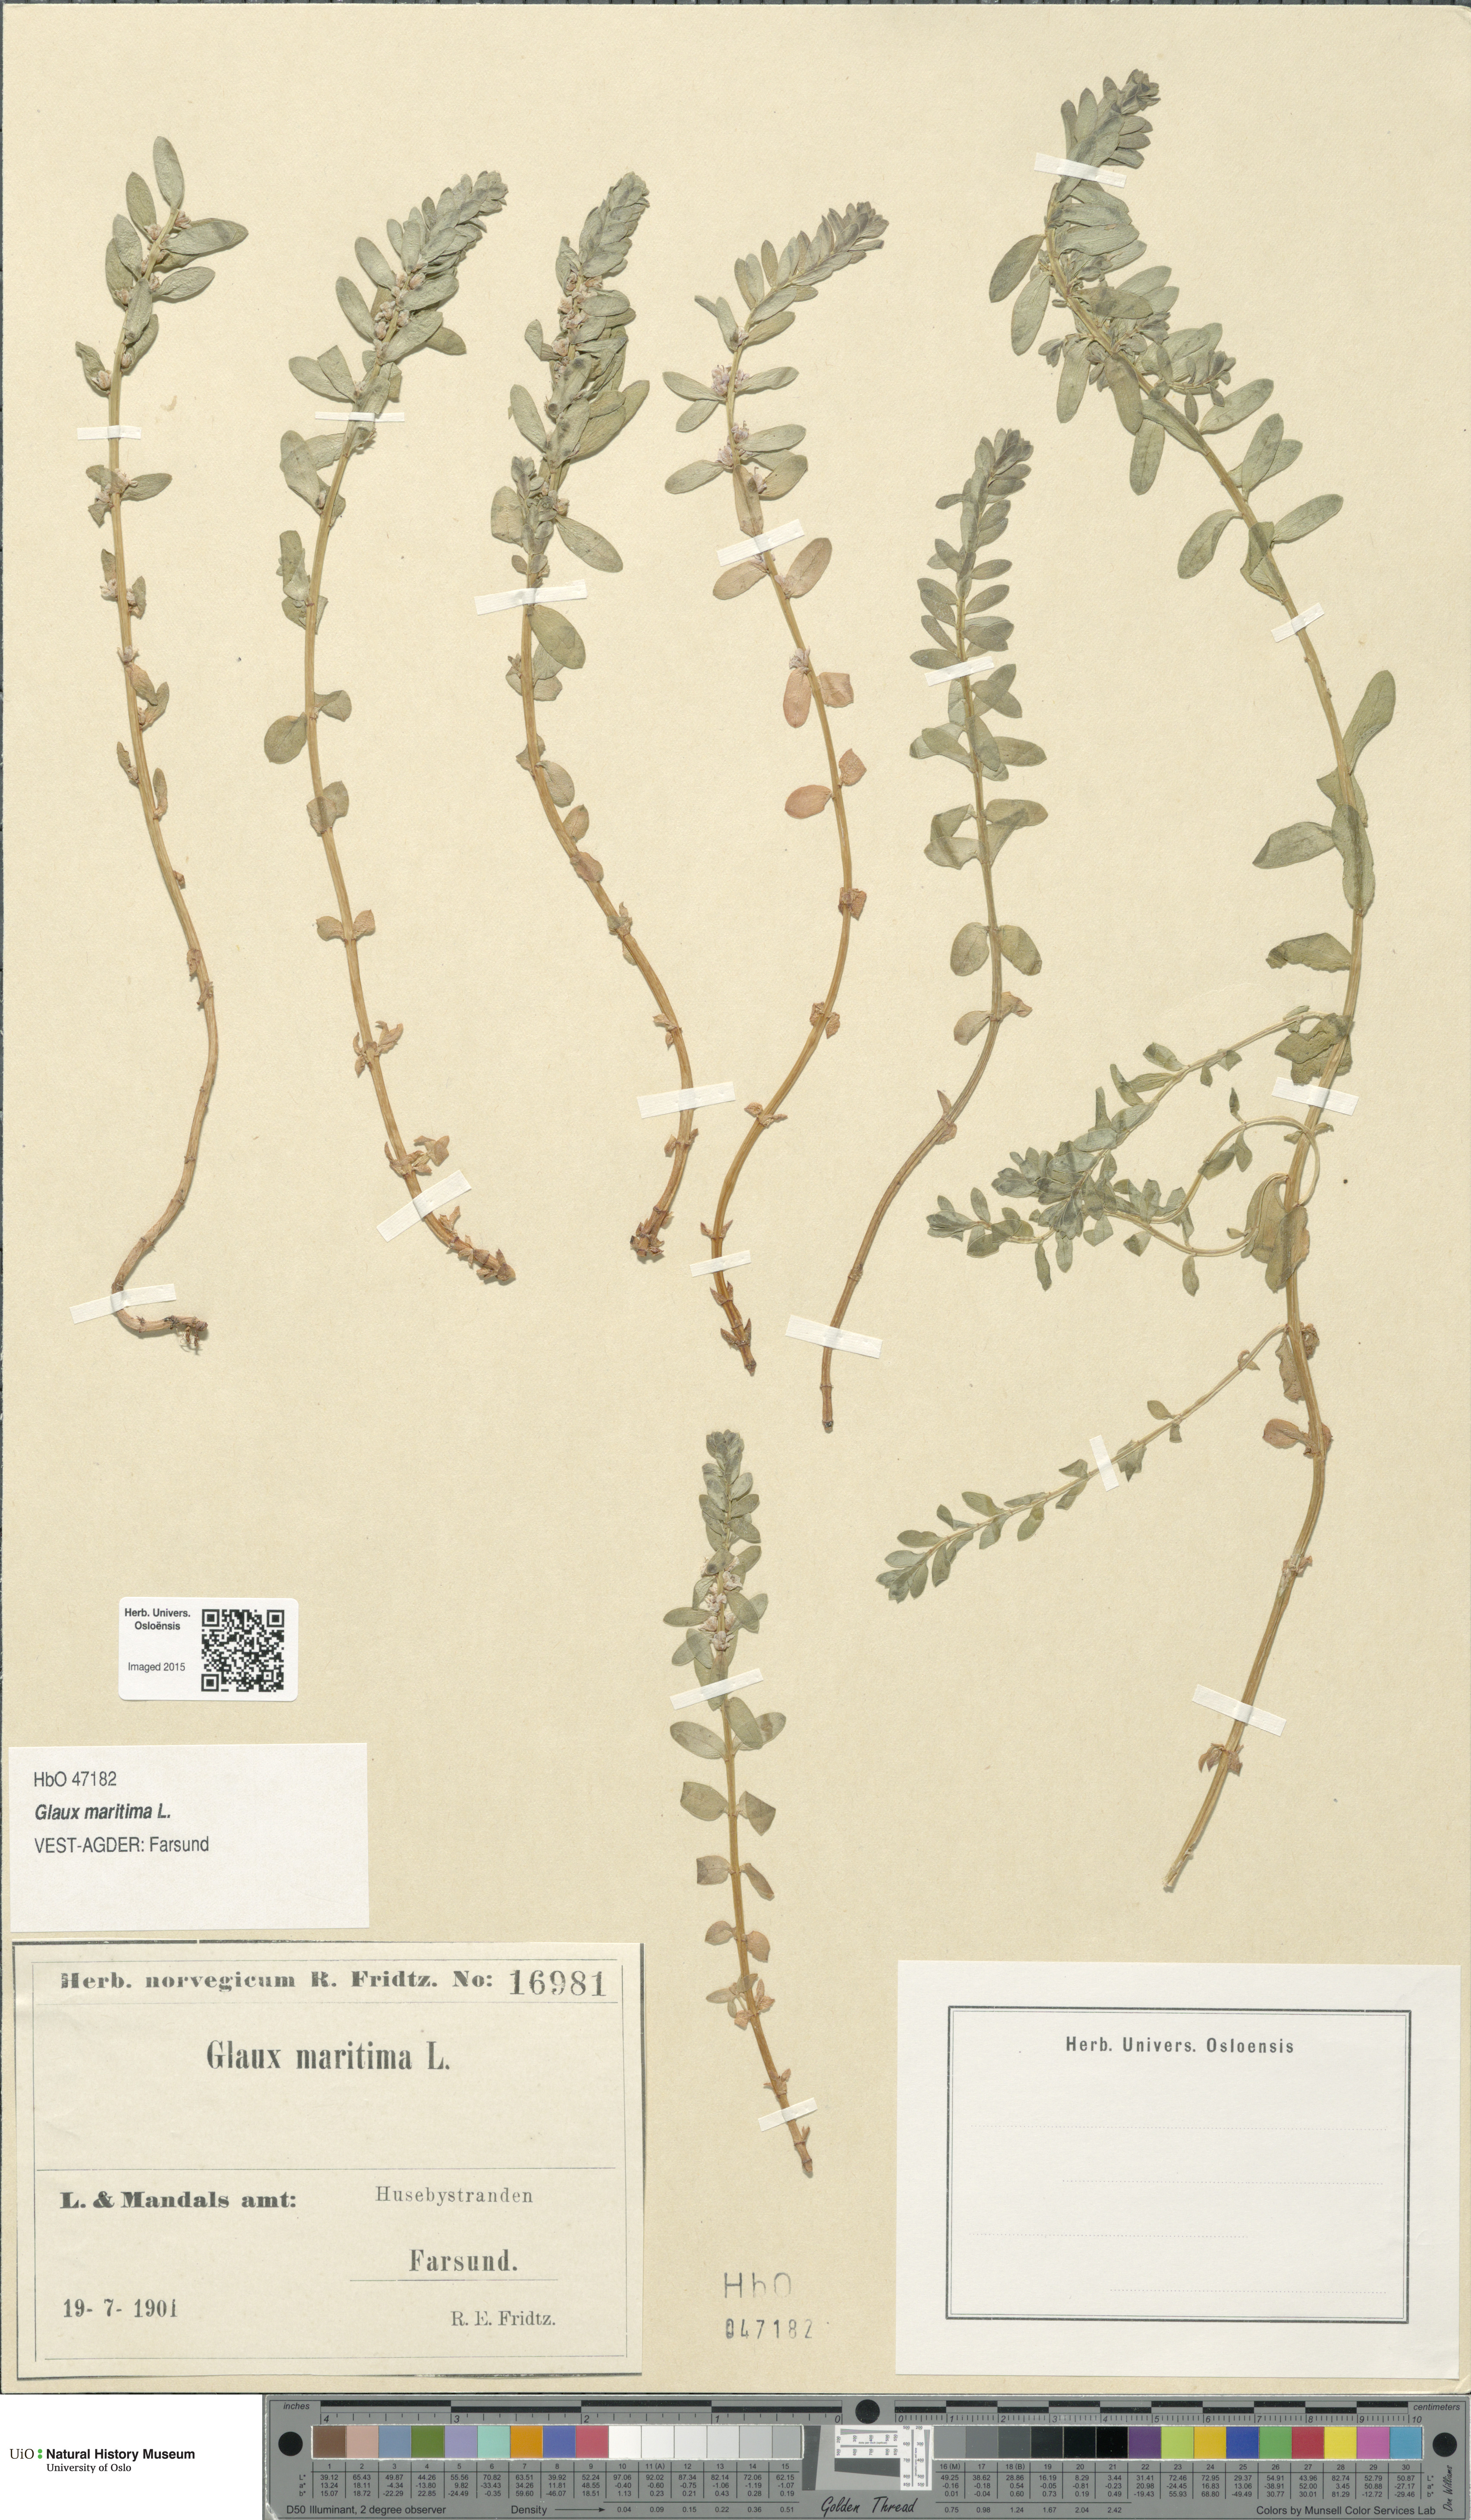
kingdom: Plantae
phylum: Tracheophyta
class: Magnoliopsida
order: Ericales
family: Primulaceae
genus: Lysimachia
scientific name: Lysimachia maritima
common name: Sea milkwort
